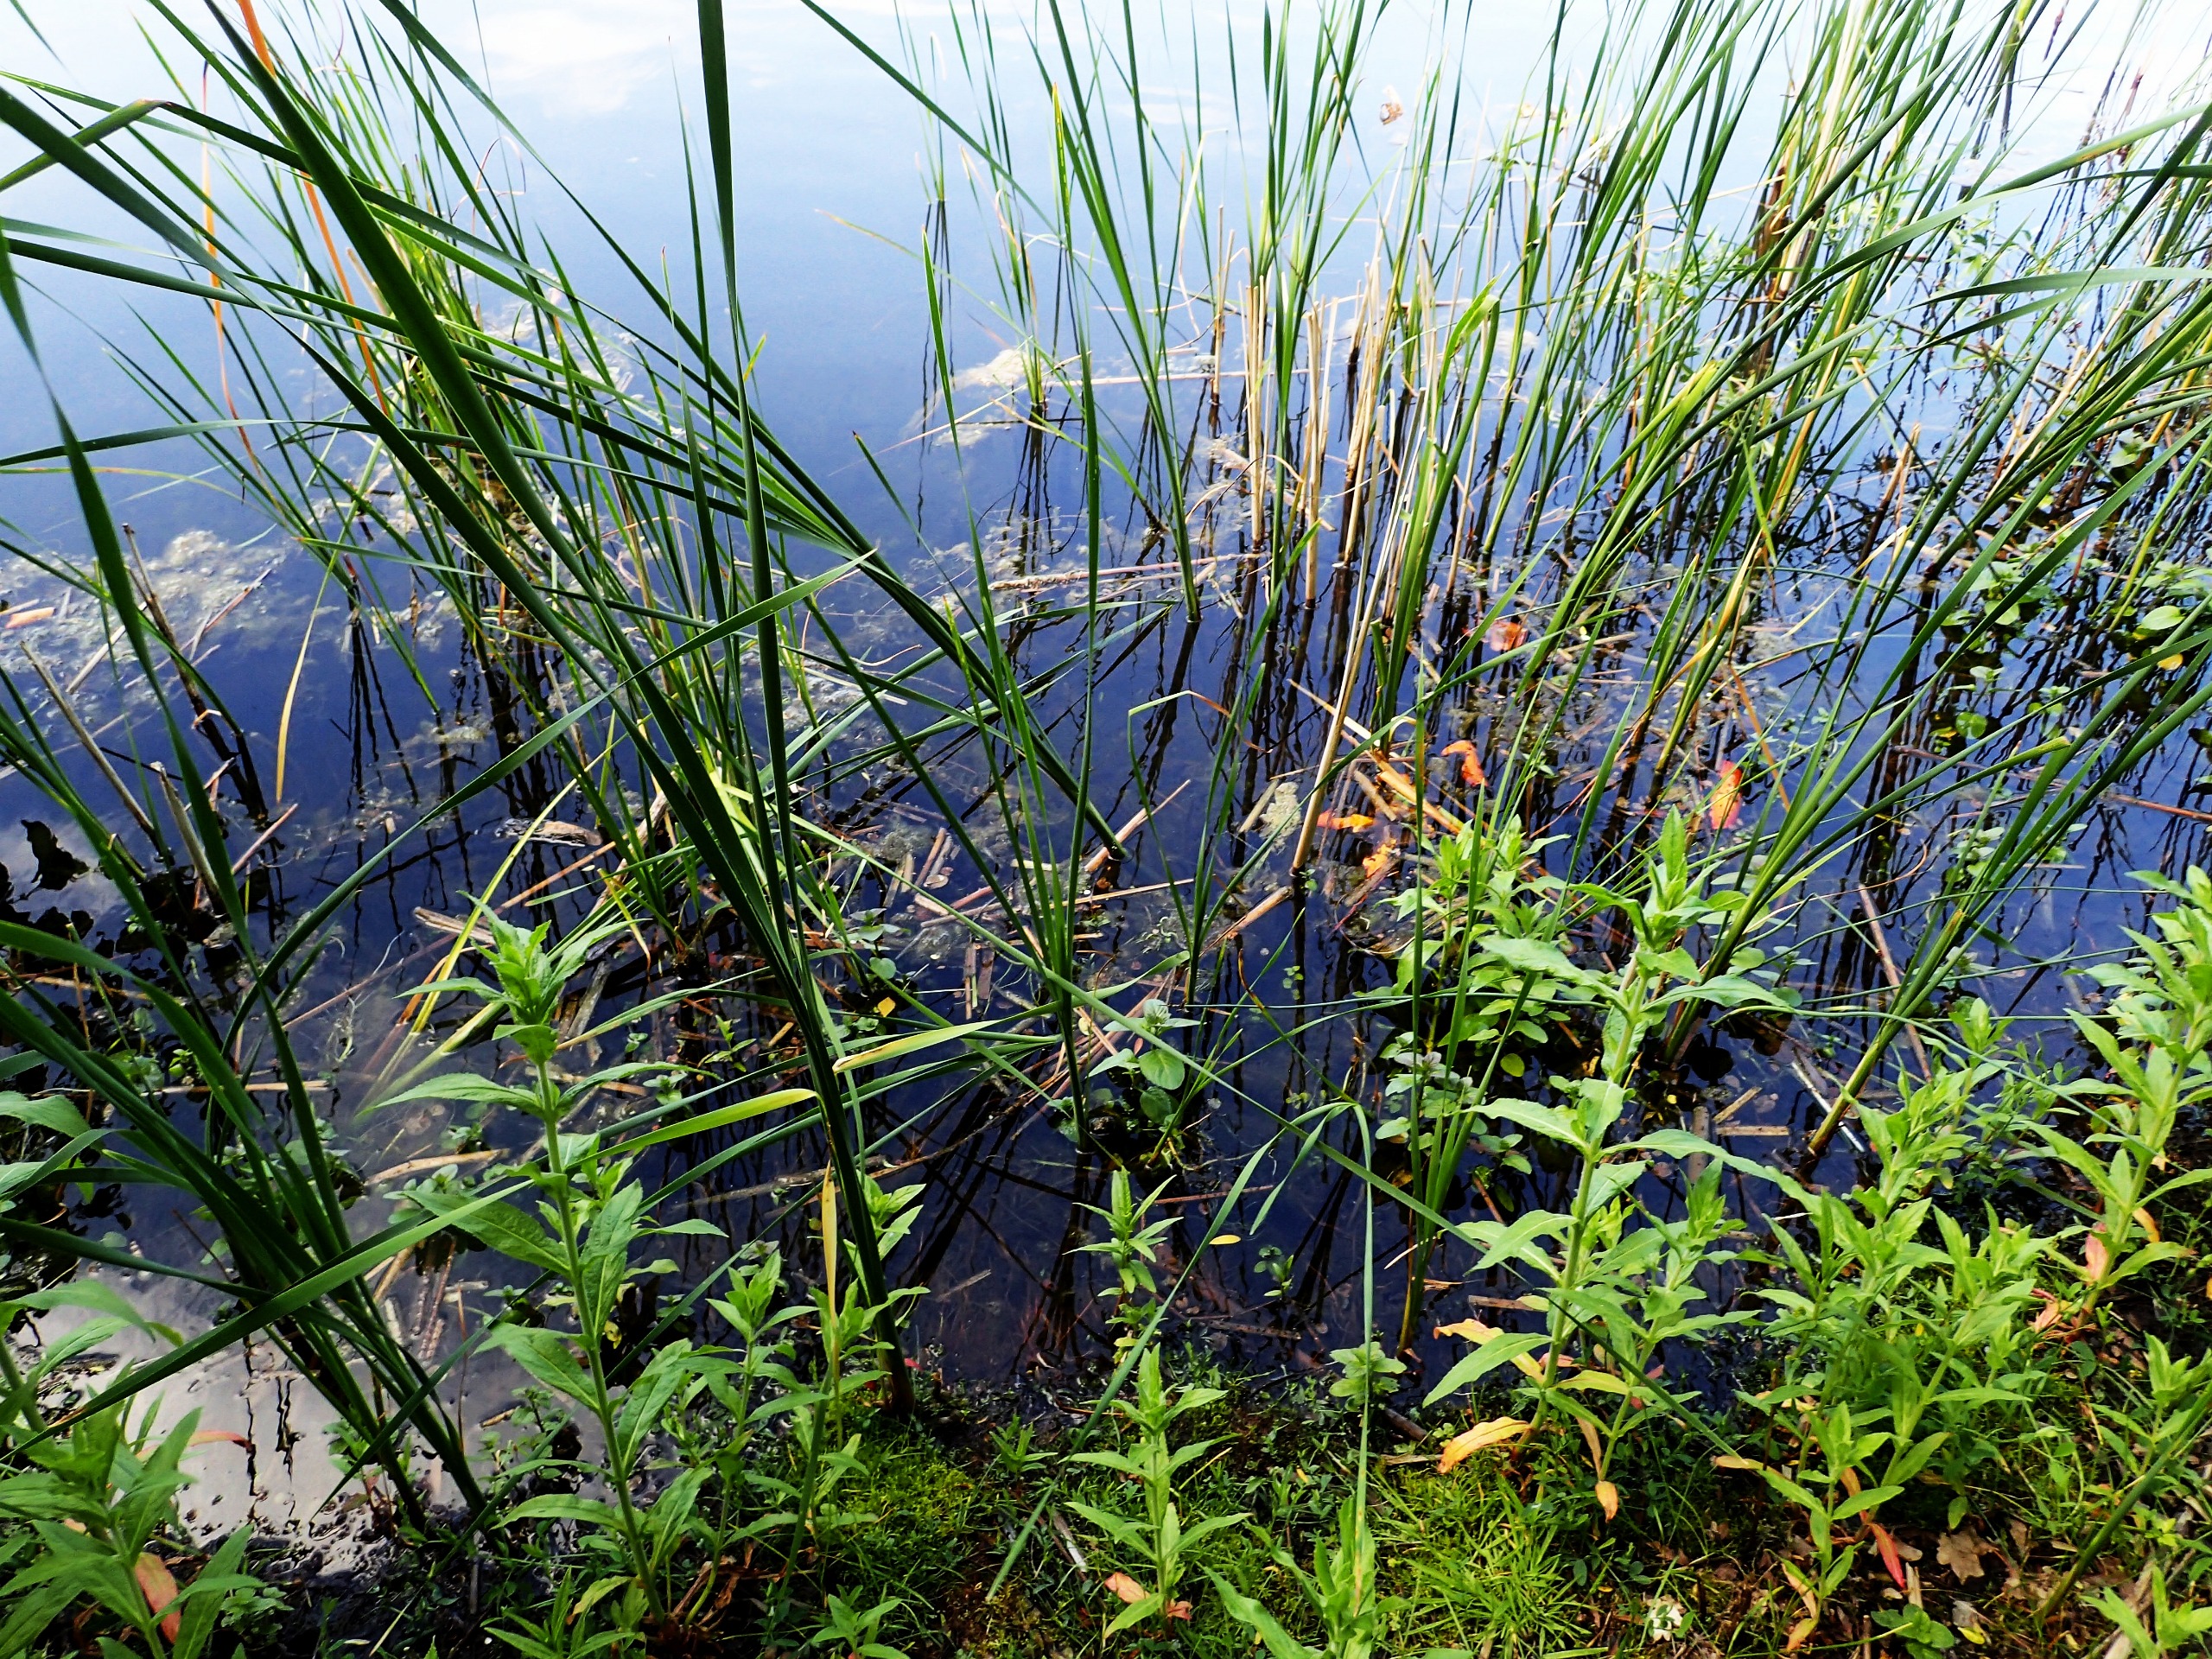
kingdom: Plantae
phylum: Tracheophyta
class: Liliopsida
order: Poales
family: Typhaceae
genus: Typha
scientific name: Typha angustifolia
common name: Smalbladet dunhammer
